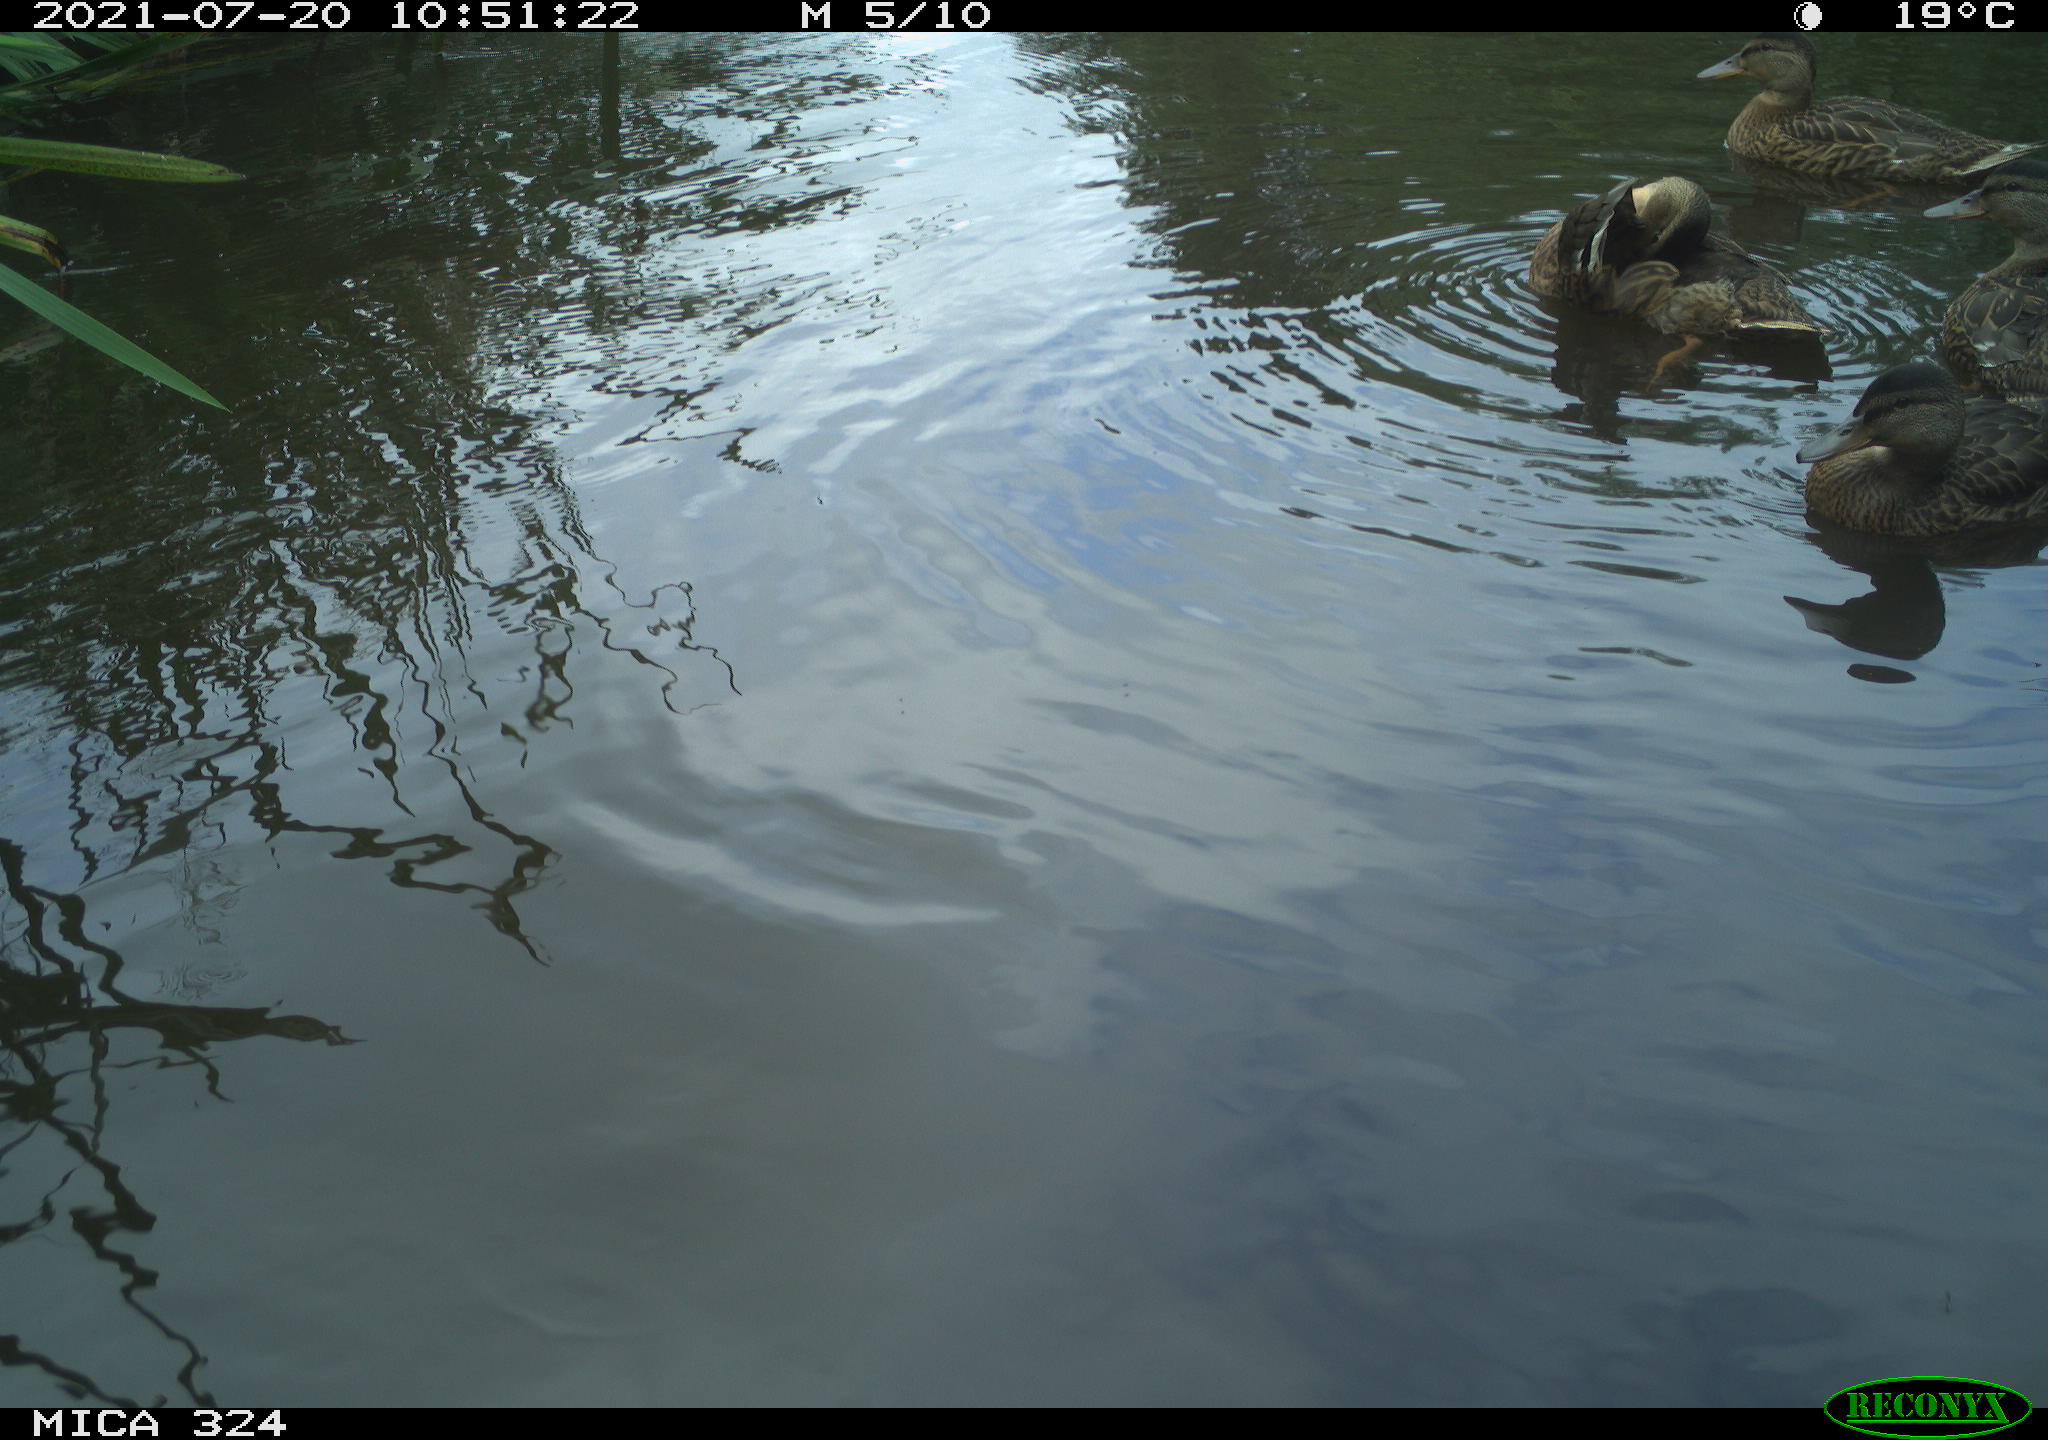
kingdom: Animalia
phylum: Chordata
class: Aves
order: Anseriformes
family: Anatidae
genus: Anas
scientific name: Anas platyrhynchos
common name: Mallard
